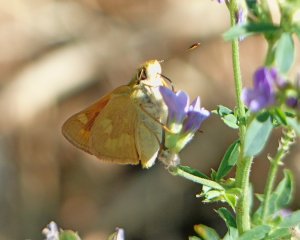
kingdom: Animalia
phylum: Arthropoda
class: Insecta
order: Lepidoptera
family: Hesperiidae
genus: Ochlodes
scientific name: Ochlodes sylvanoides
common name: Woodland Skipper
